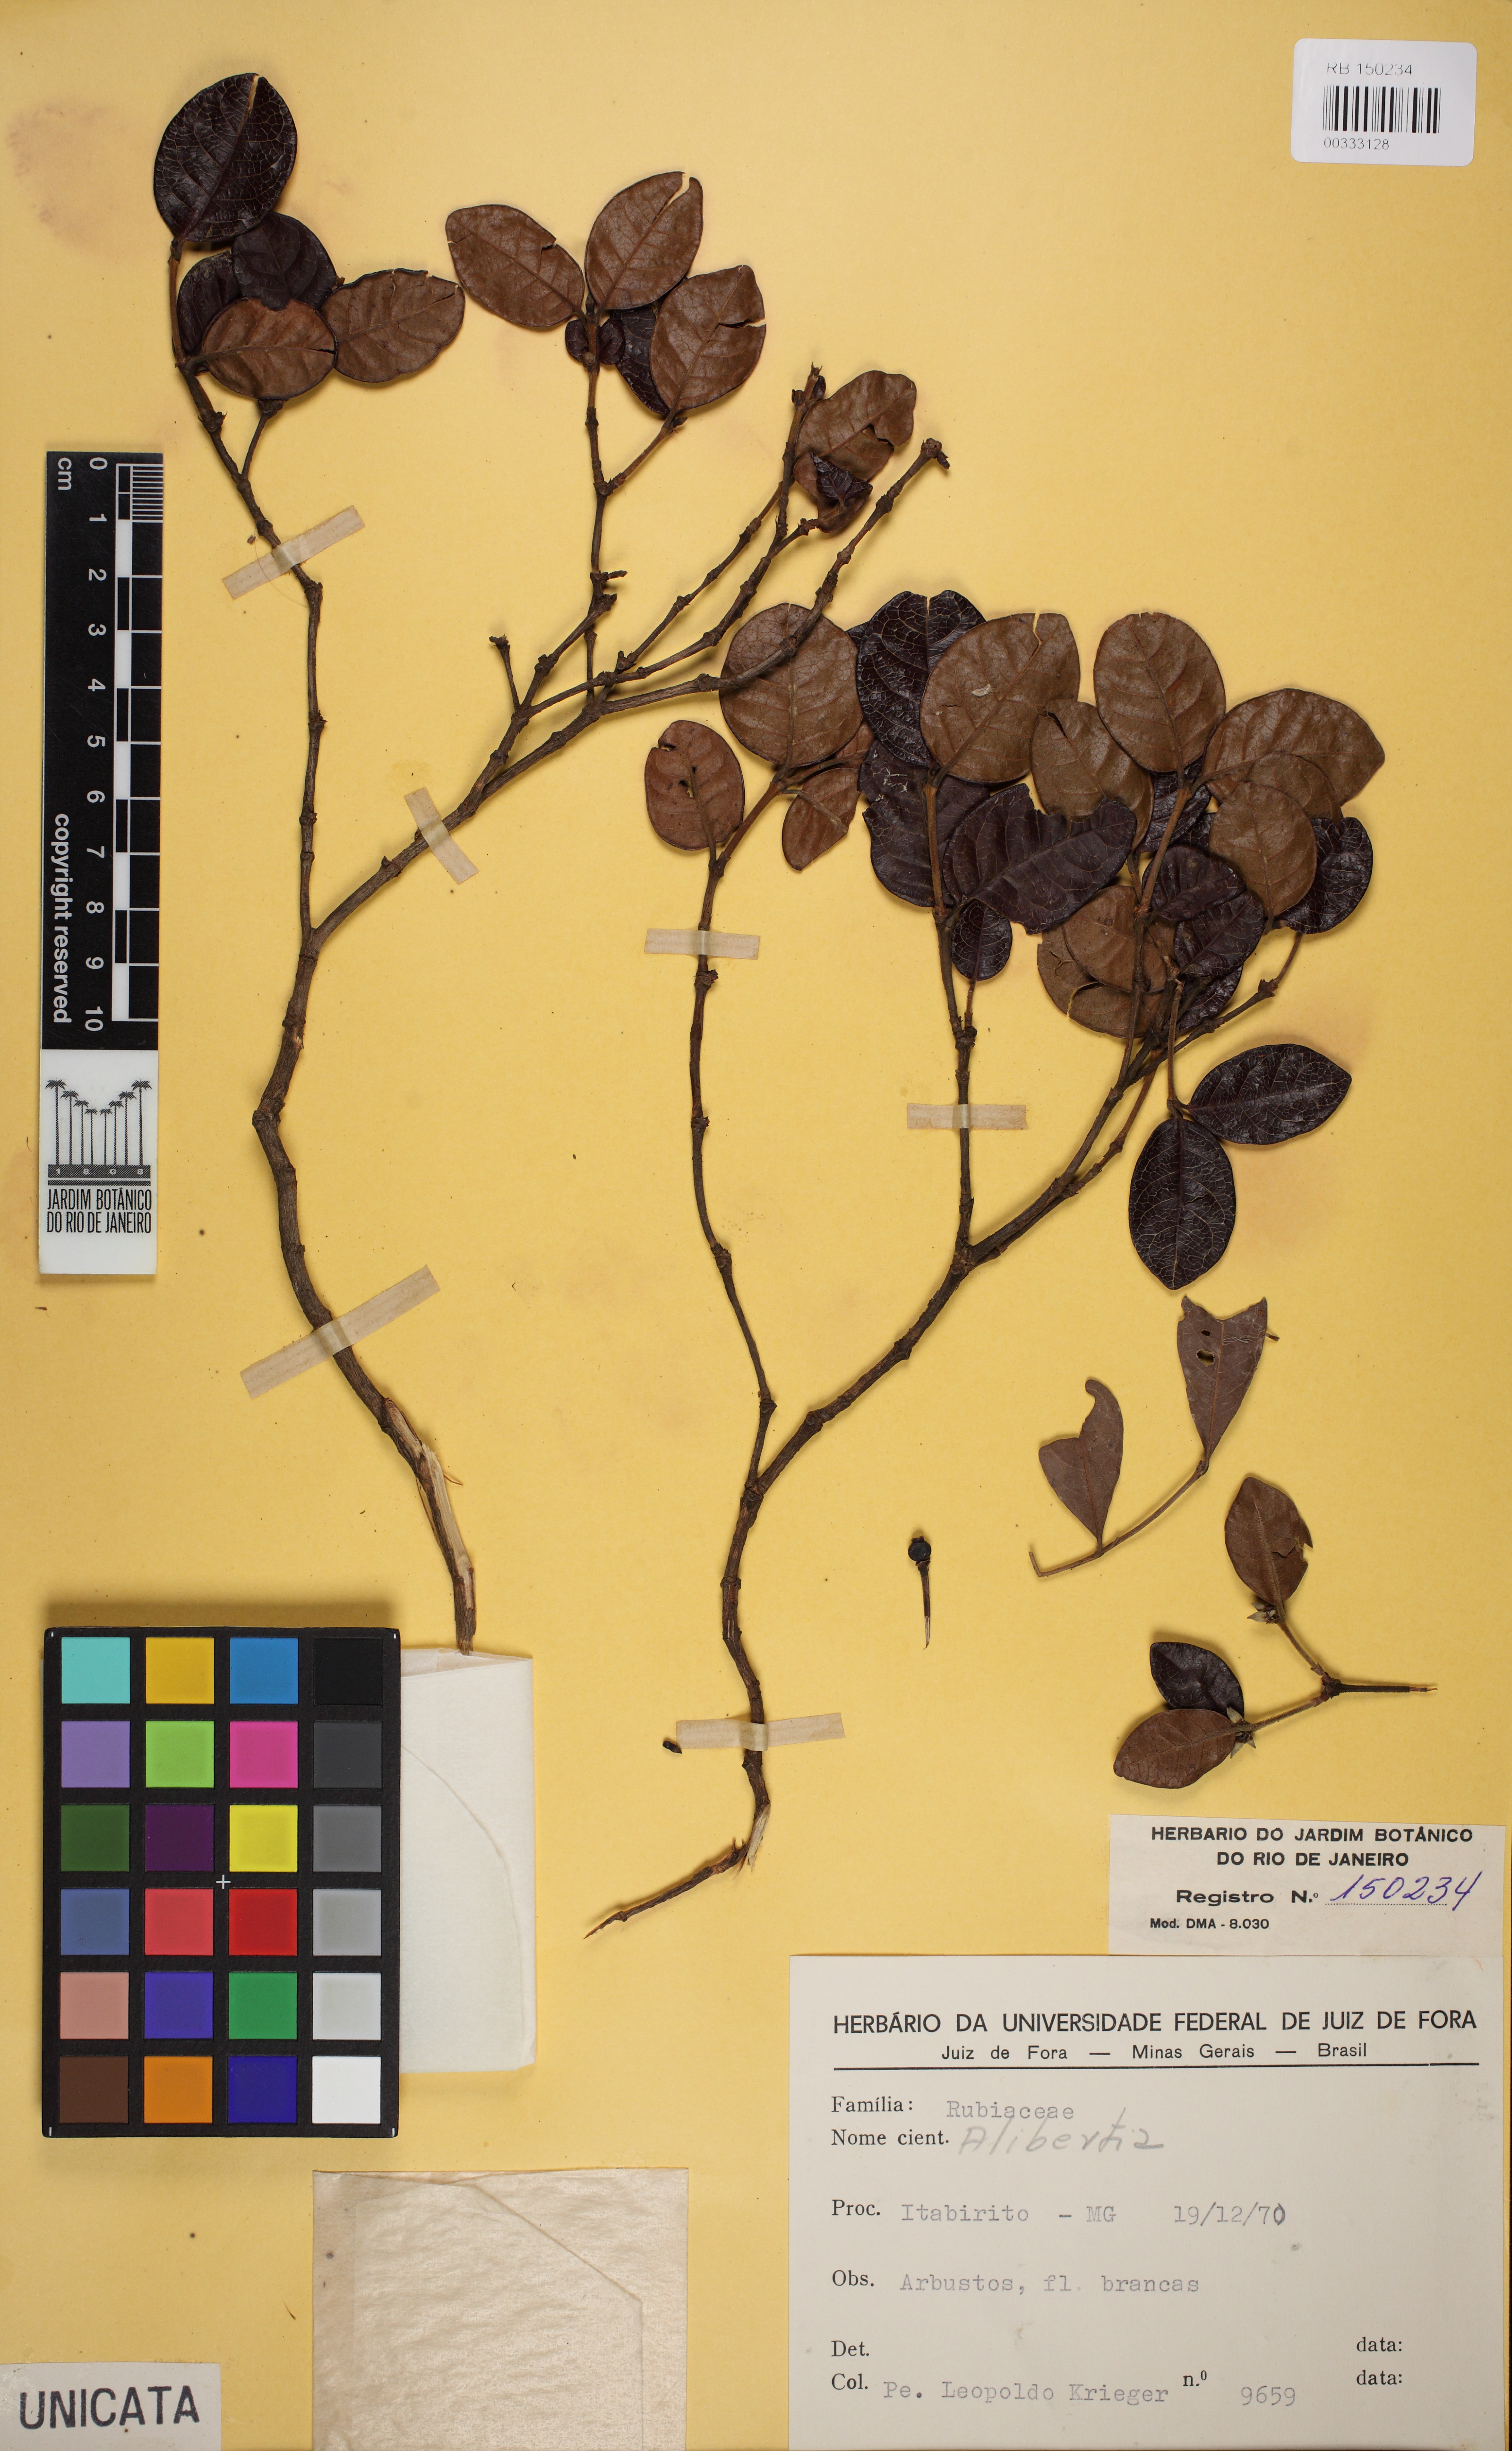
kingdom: Plantae
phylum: Tracheophyta
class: Magnoliopsida
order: Gentianales
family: Rubiaceae
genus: Cordiera
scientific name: Cordiera concolor
